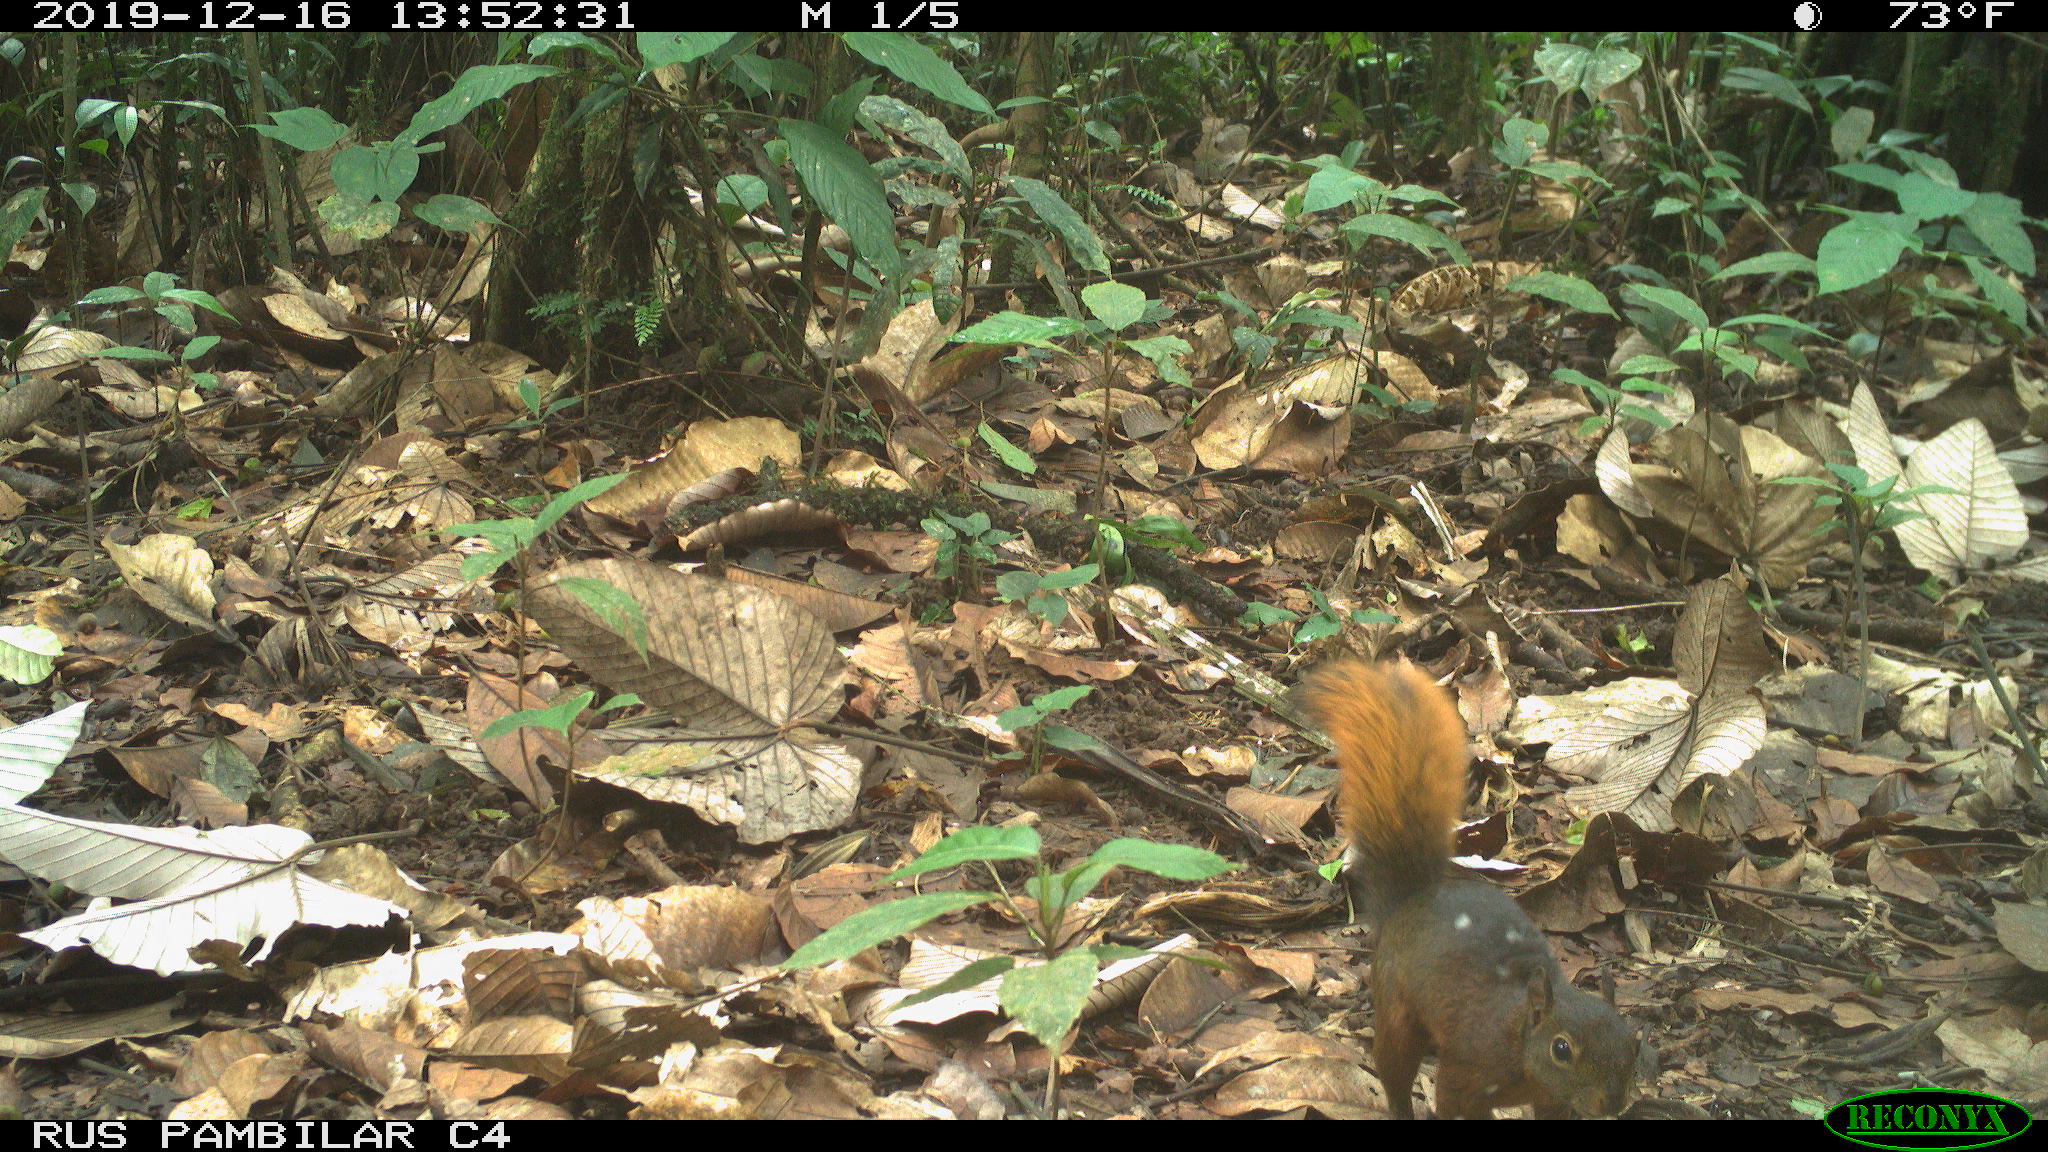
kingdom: Animalia
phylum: Chordata
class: Mammalia
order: Rodentia
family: Sciuridae
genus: Sciurus
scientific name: Sciurus granatensis
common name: Red-tailed squirrel
